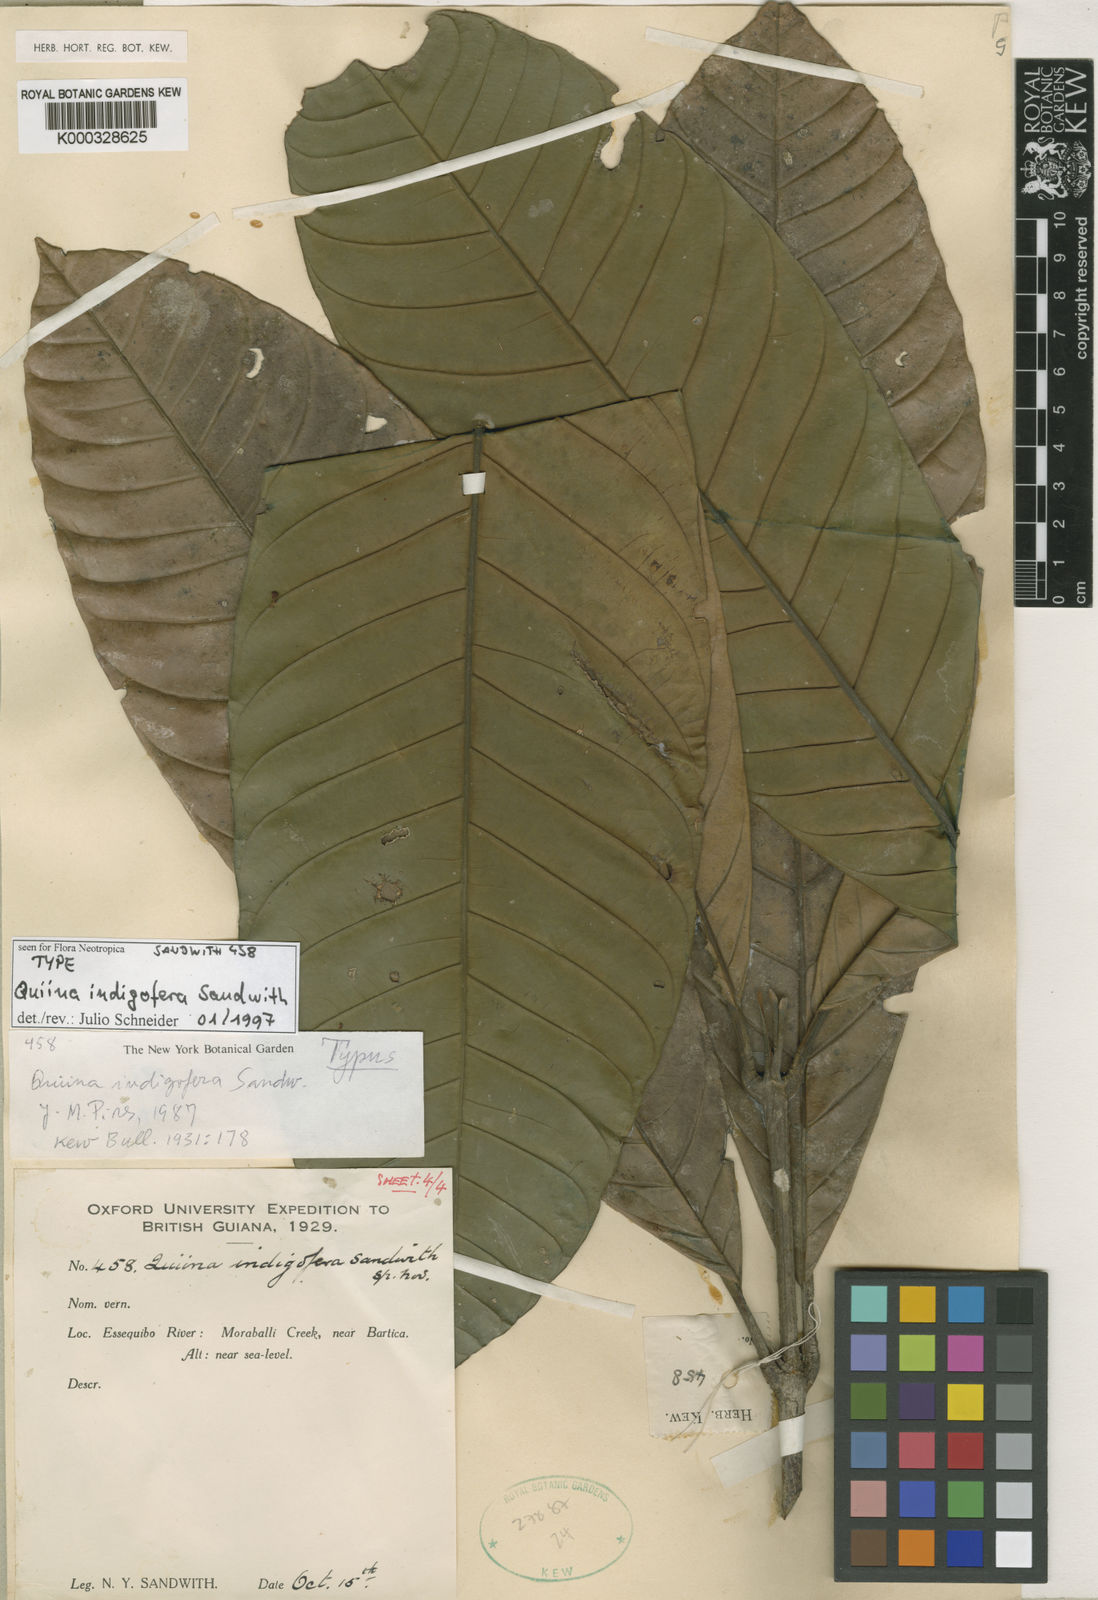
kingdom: Plantae
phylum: Tracheophyta
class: Magnoliopsida
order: Malpighiales
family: Quiinaceae
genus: Quiina
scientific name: Quiina indigofera
